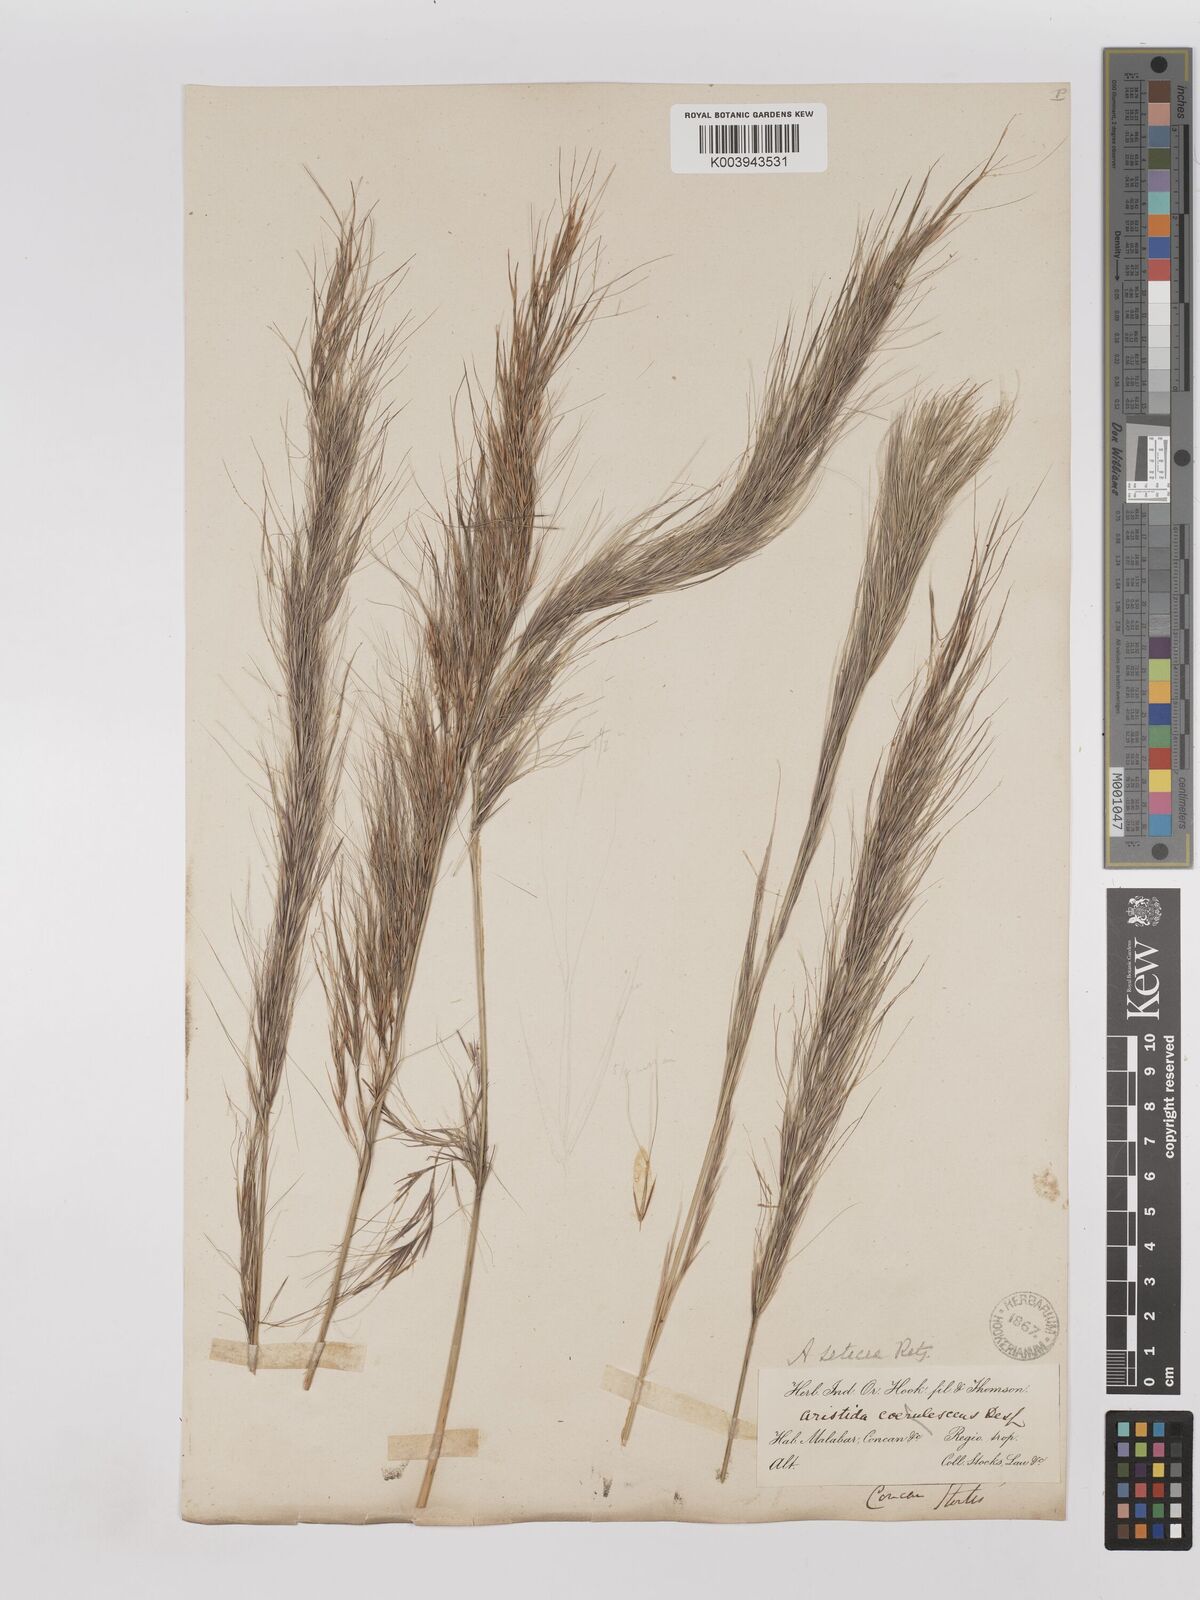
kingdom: Plantae
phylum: Tracheophyta
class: Liliopsida
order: Poales
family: Poaceae
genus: Aristida
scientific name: Aristida setacea
